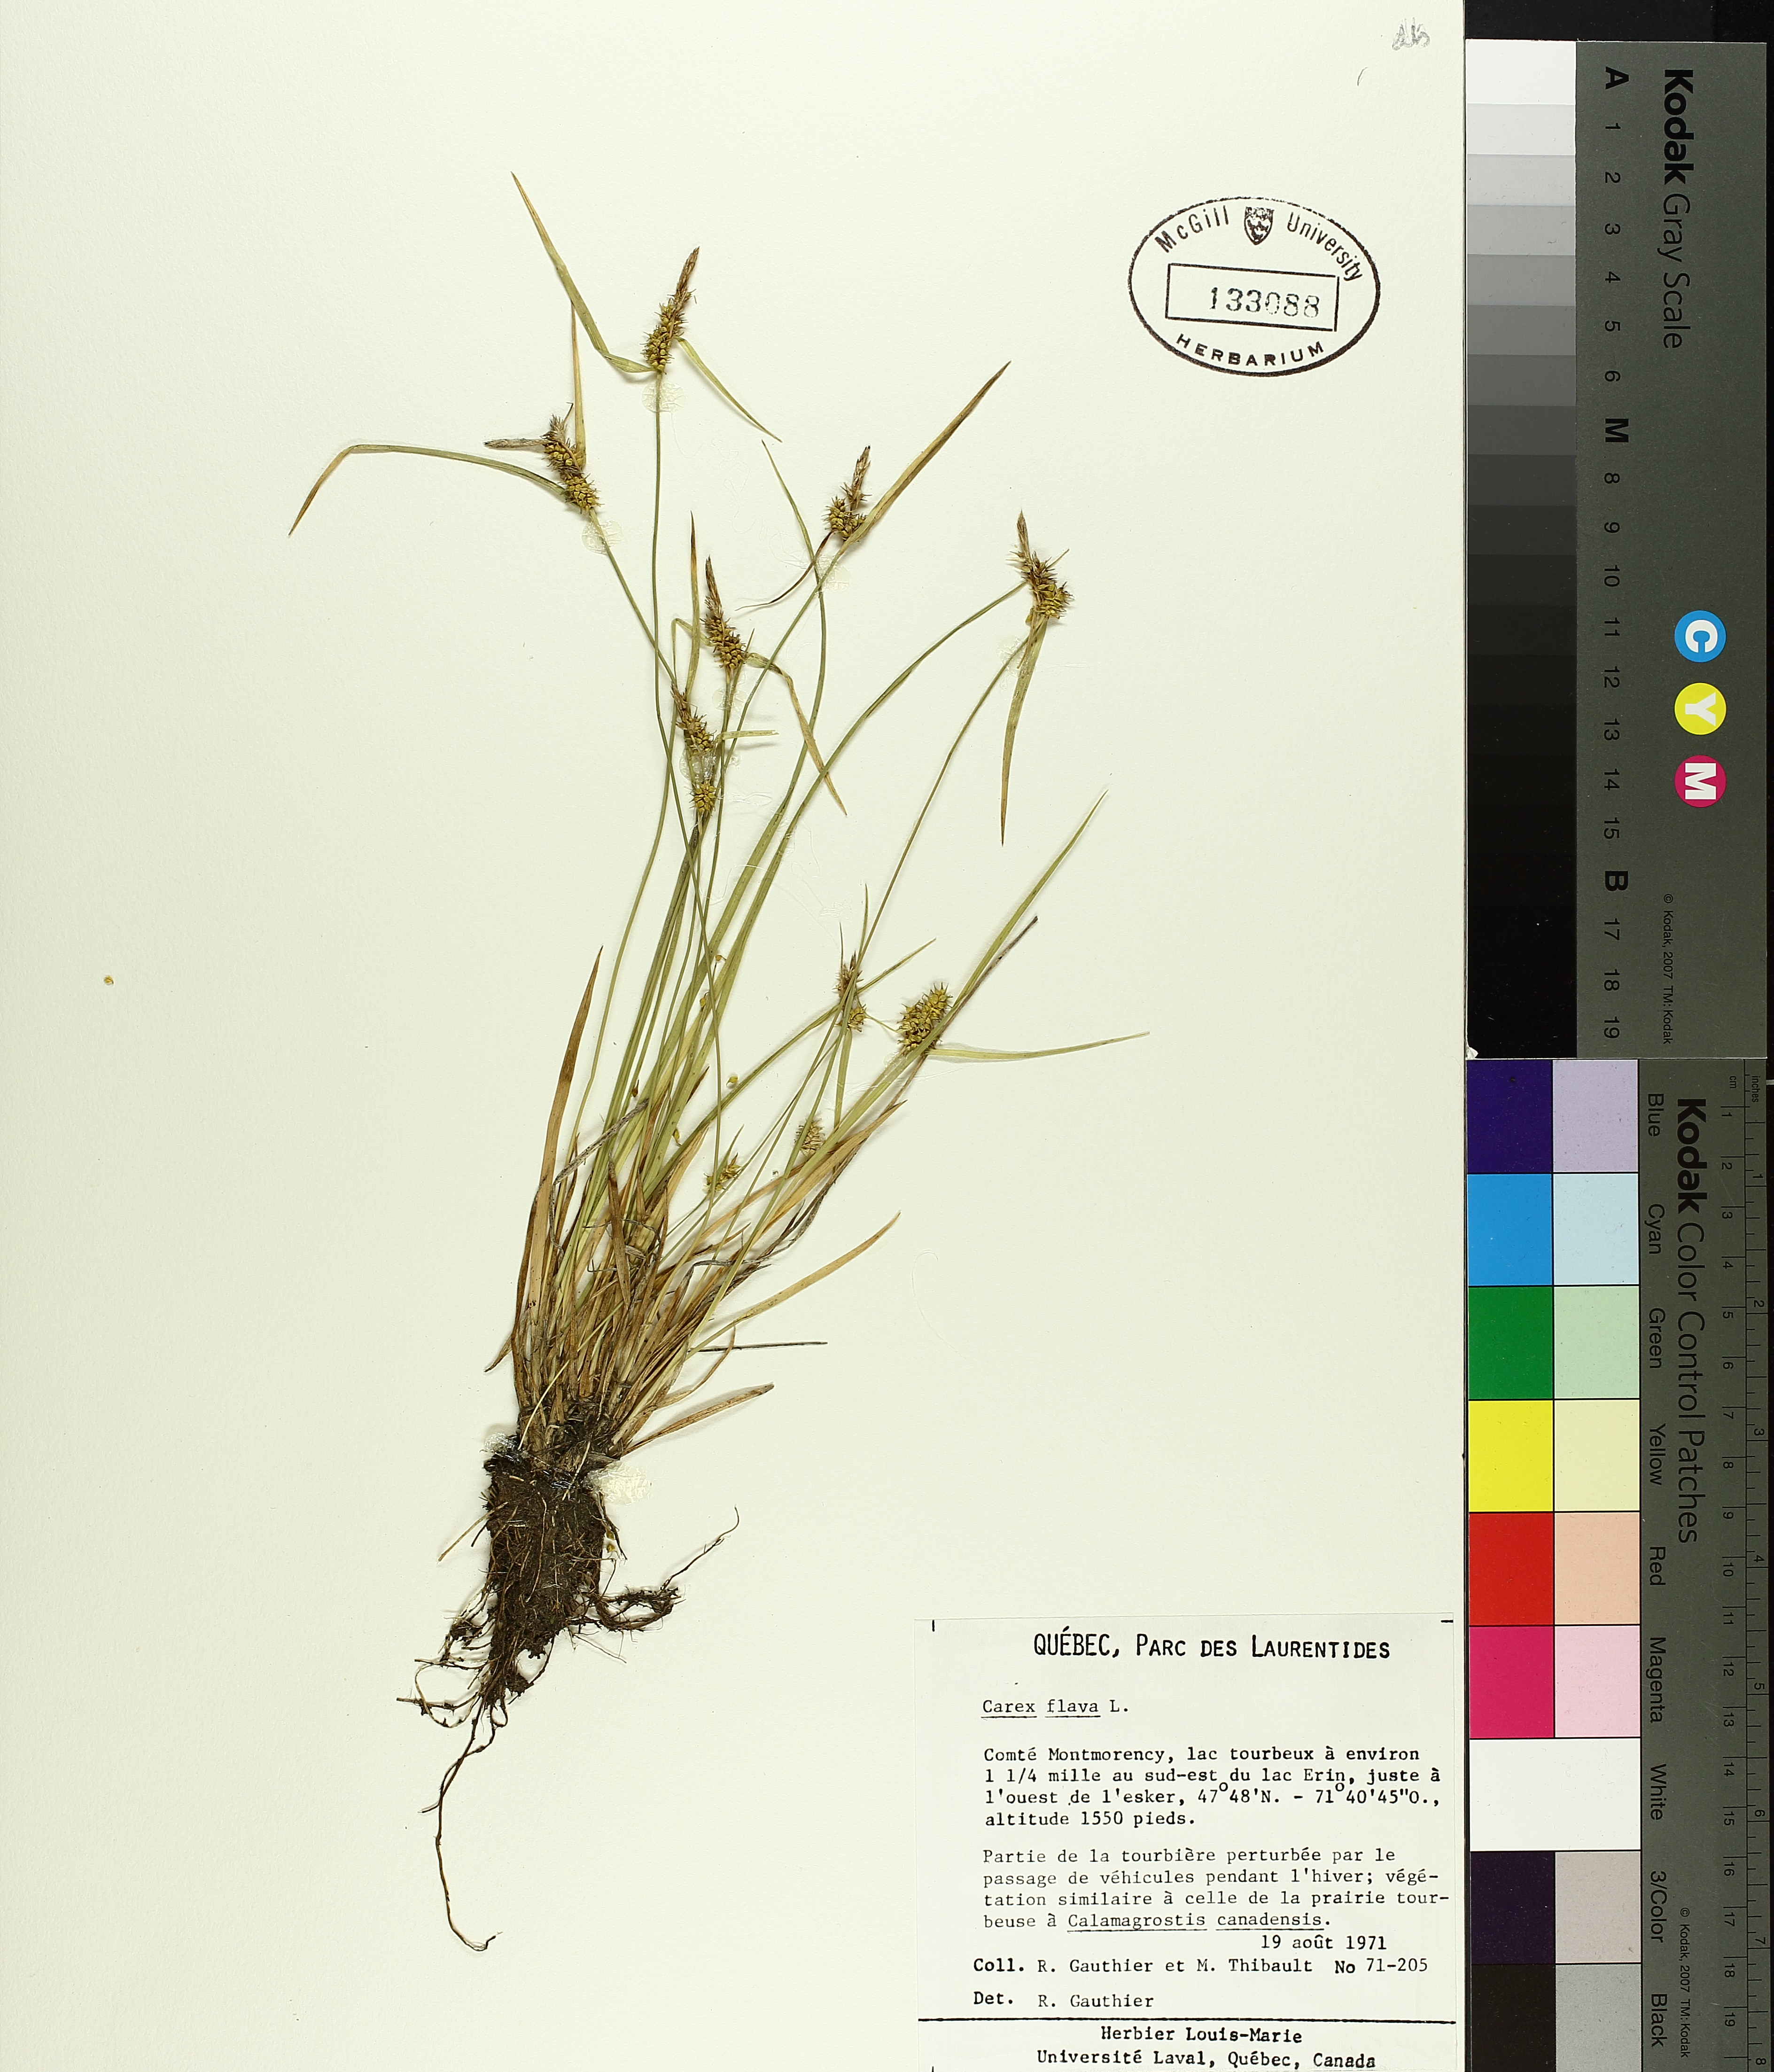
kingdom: Plantae
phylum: Tracheophyta
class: Liliopsida
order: Poales
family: Cyperaceae
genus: Carex
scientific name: Carex flava
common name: Large yellow-sedge
